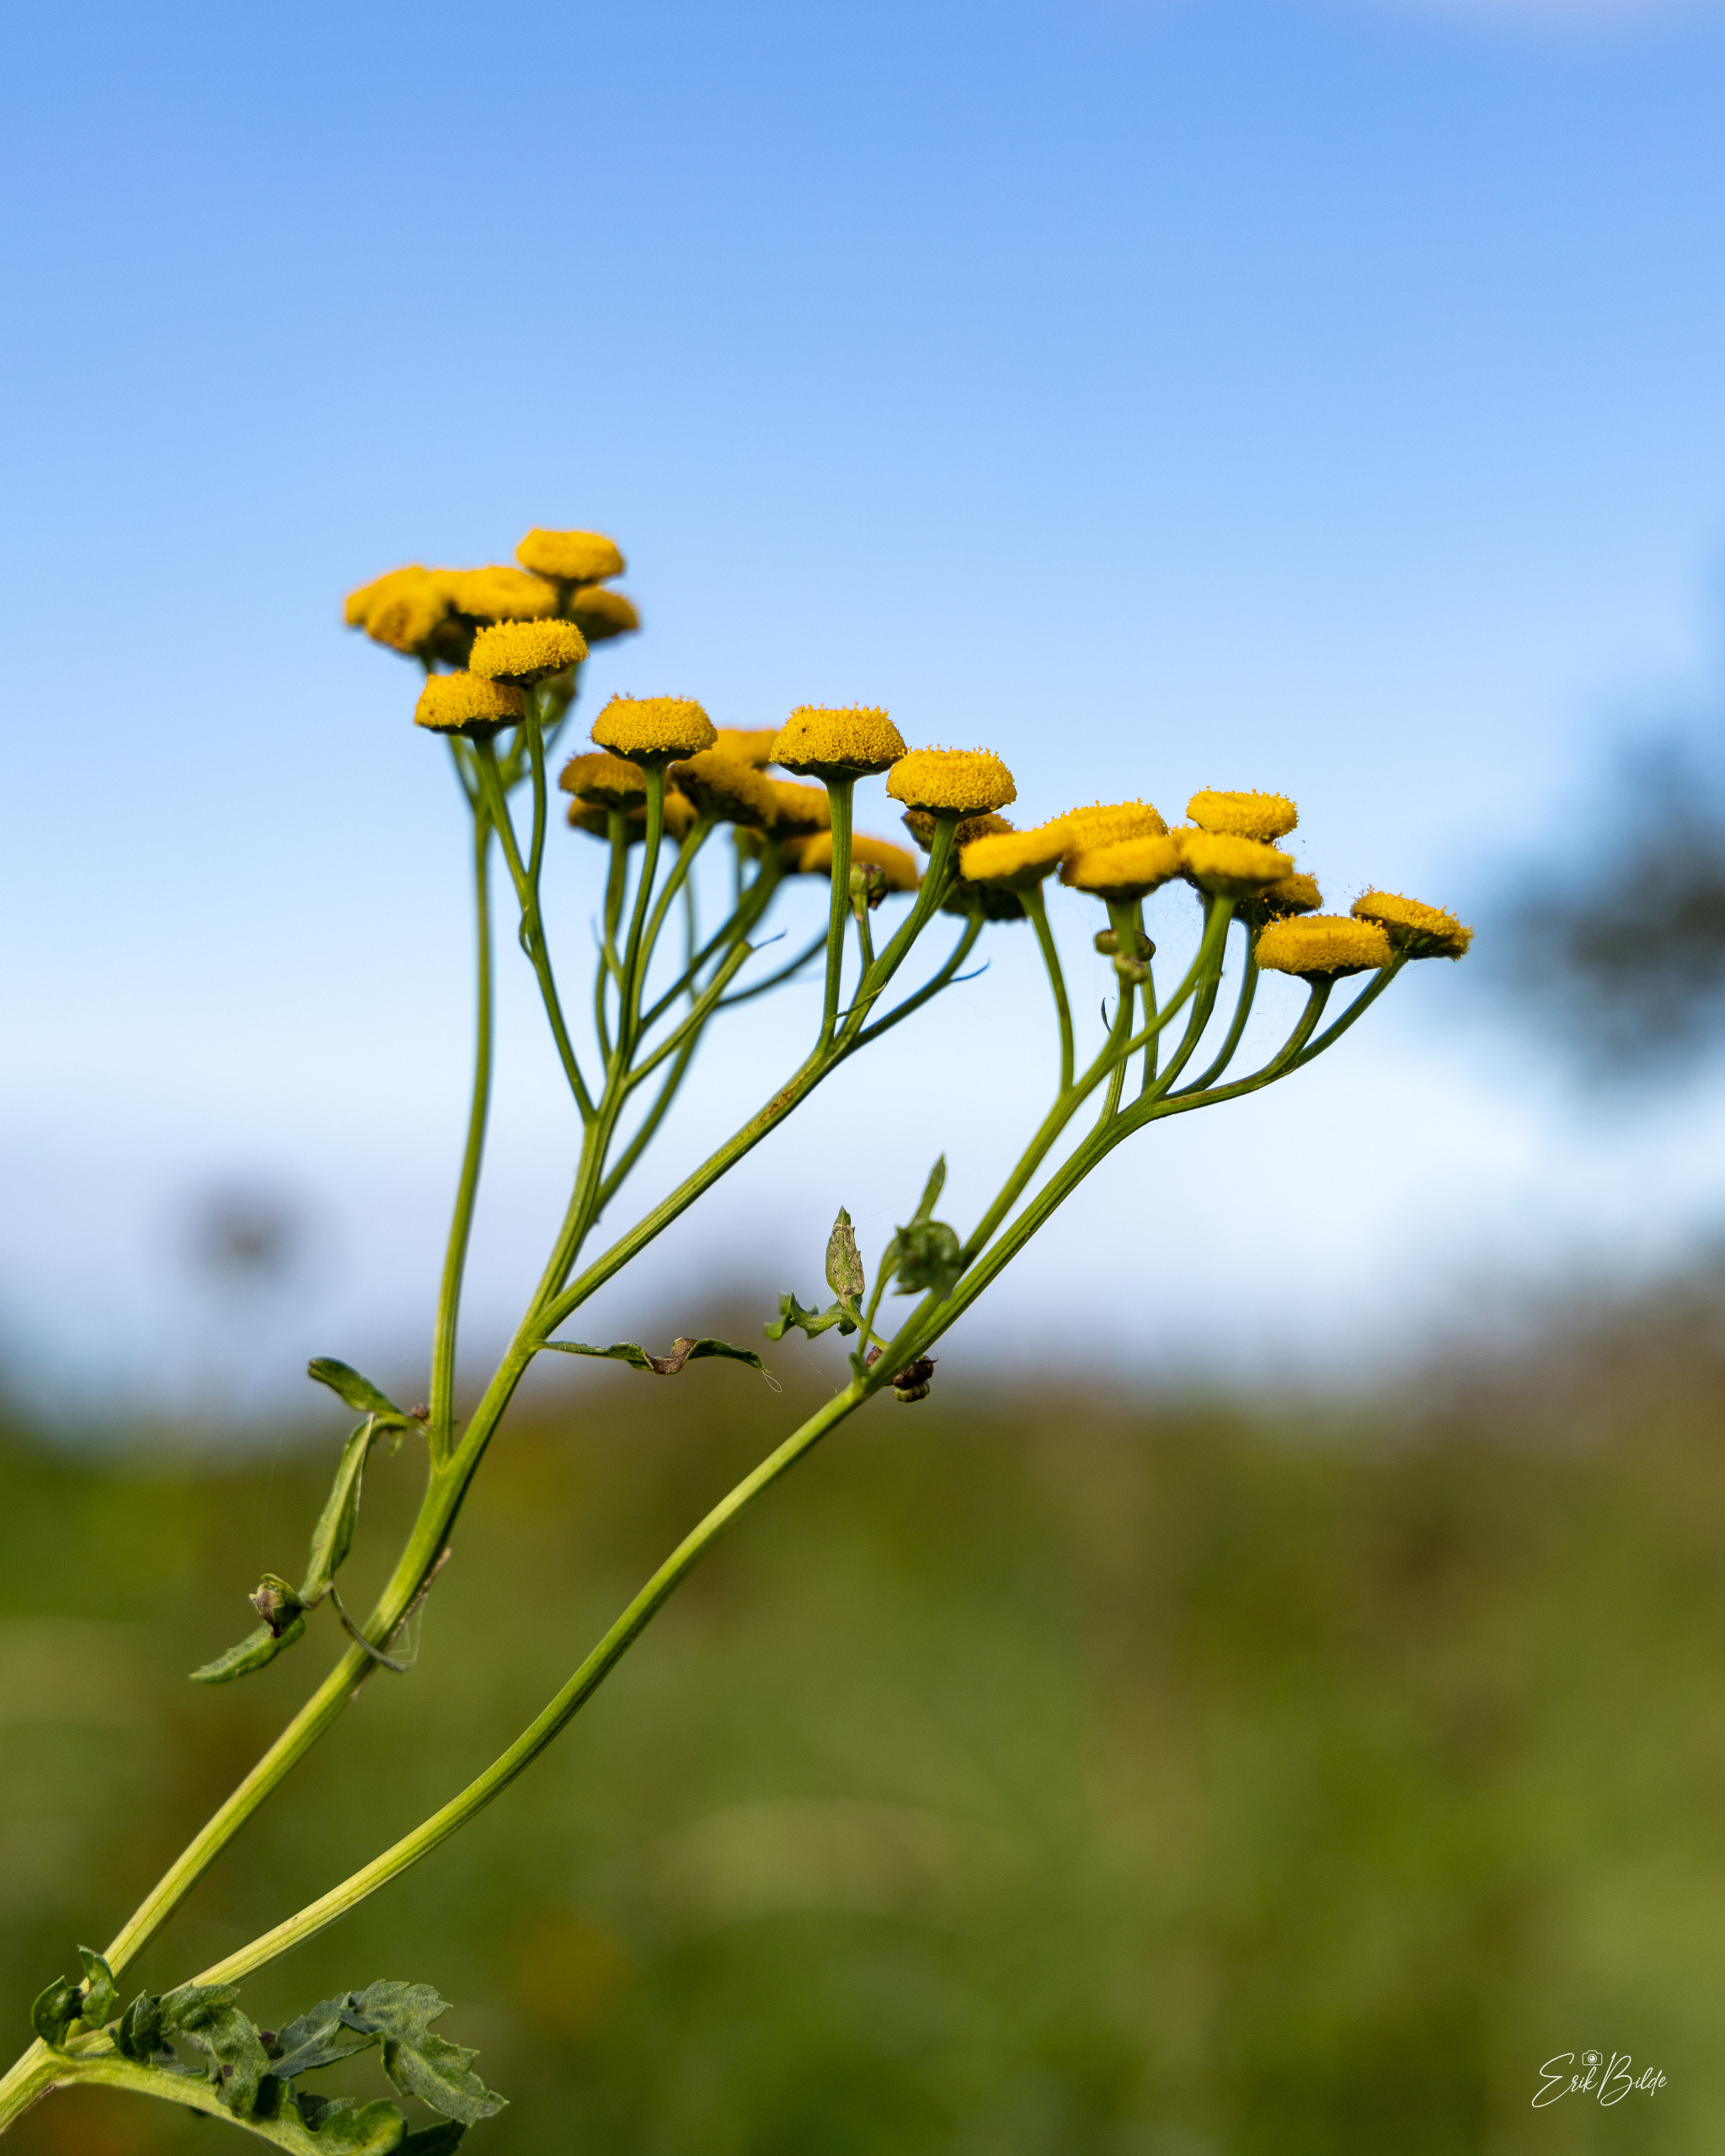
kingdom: Plantae
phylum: Tracheophyta
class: Magnoliopsida
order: Asterales
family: Asteraceae
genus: Tanacetum
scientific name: Tanacetum vulgare
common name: Rejnfan
